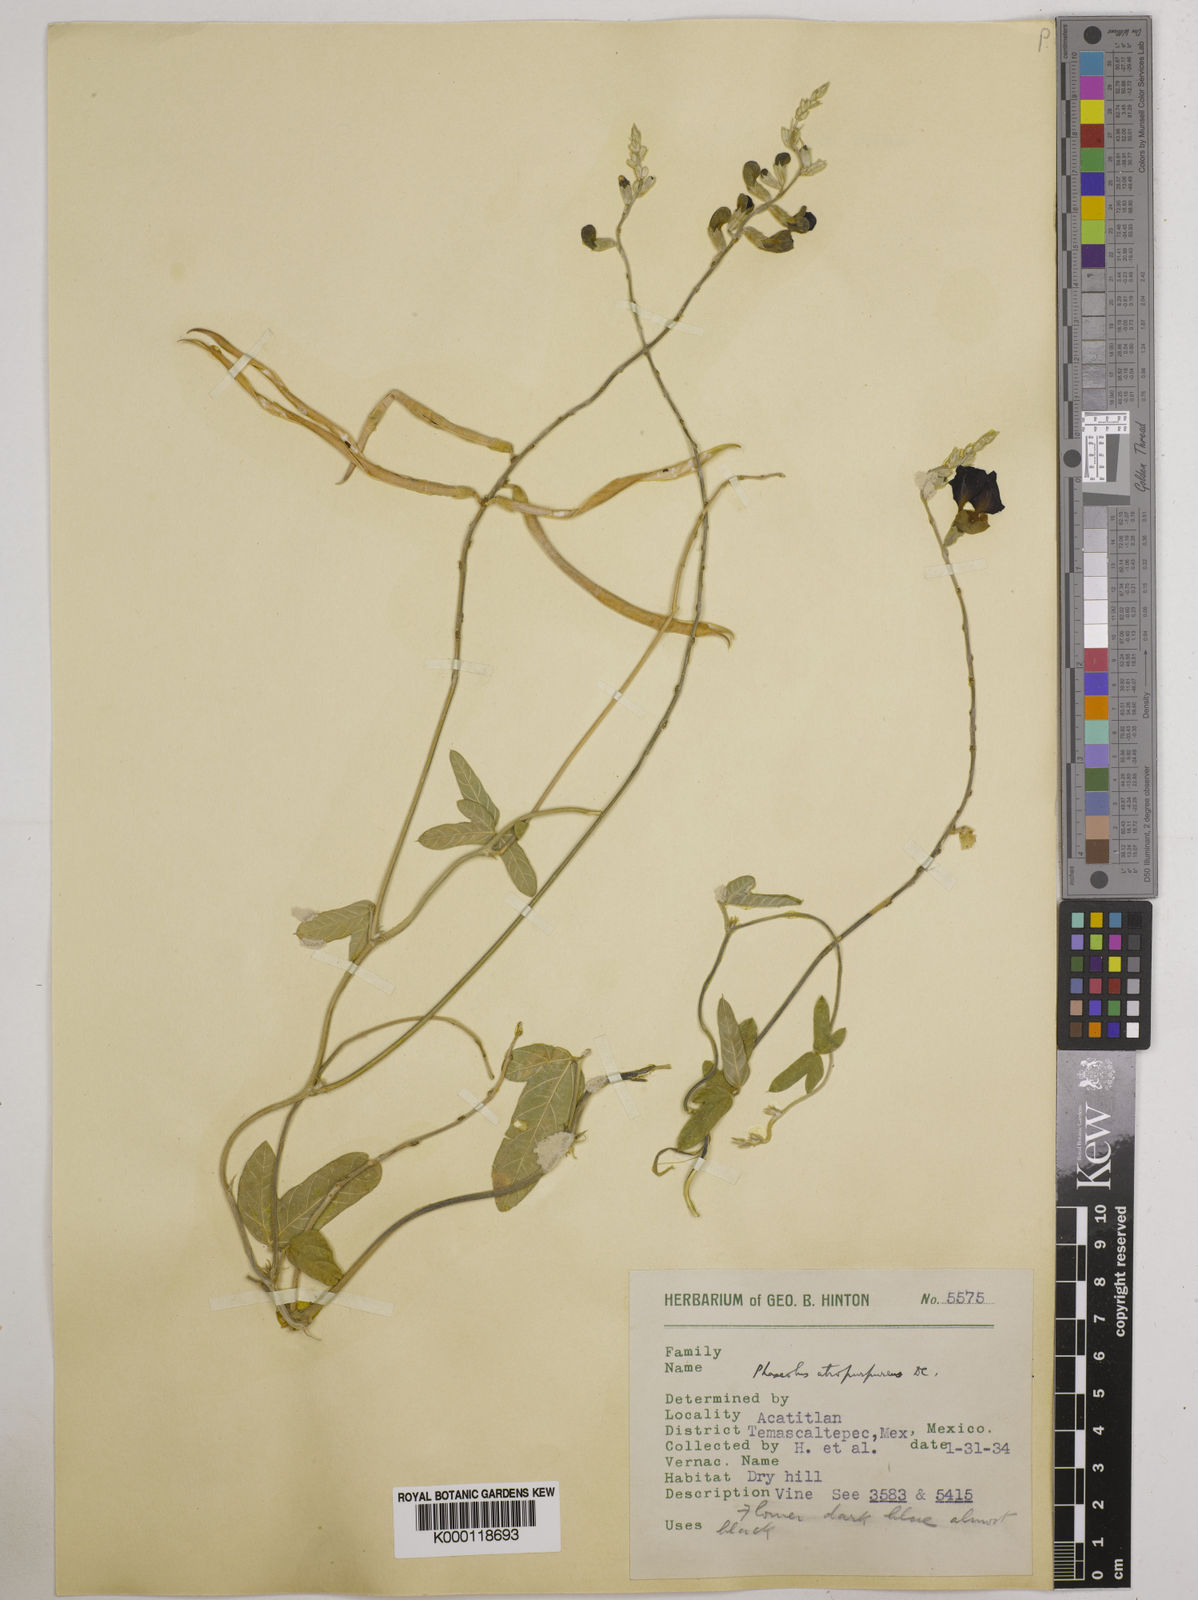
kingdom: Plantae
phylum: Tracheophyta
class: Magnoliopsida
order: Fabales
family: Fabaceae
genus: Macroptilium
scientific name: Macroptilium atropurpureum
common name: Purple bushbean
